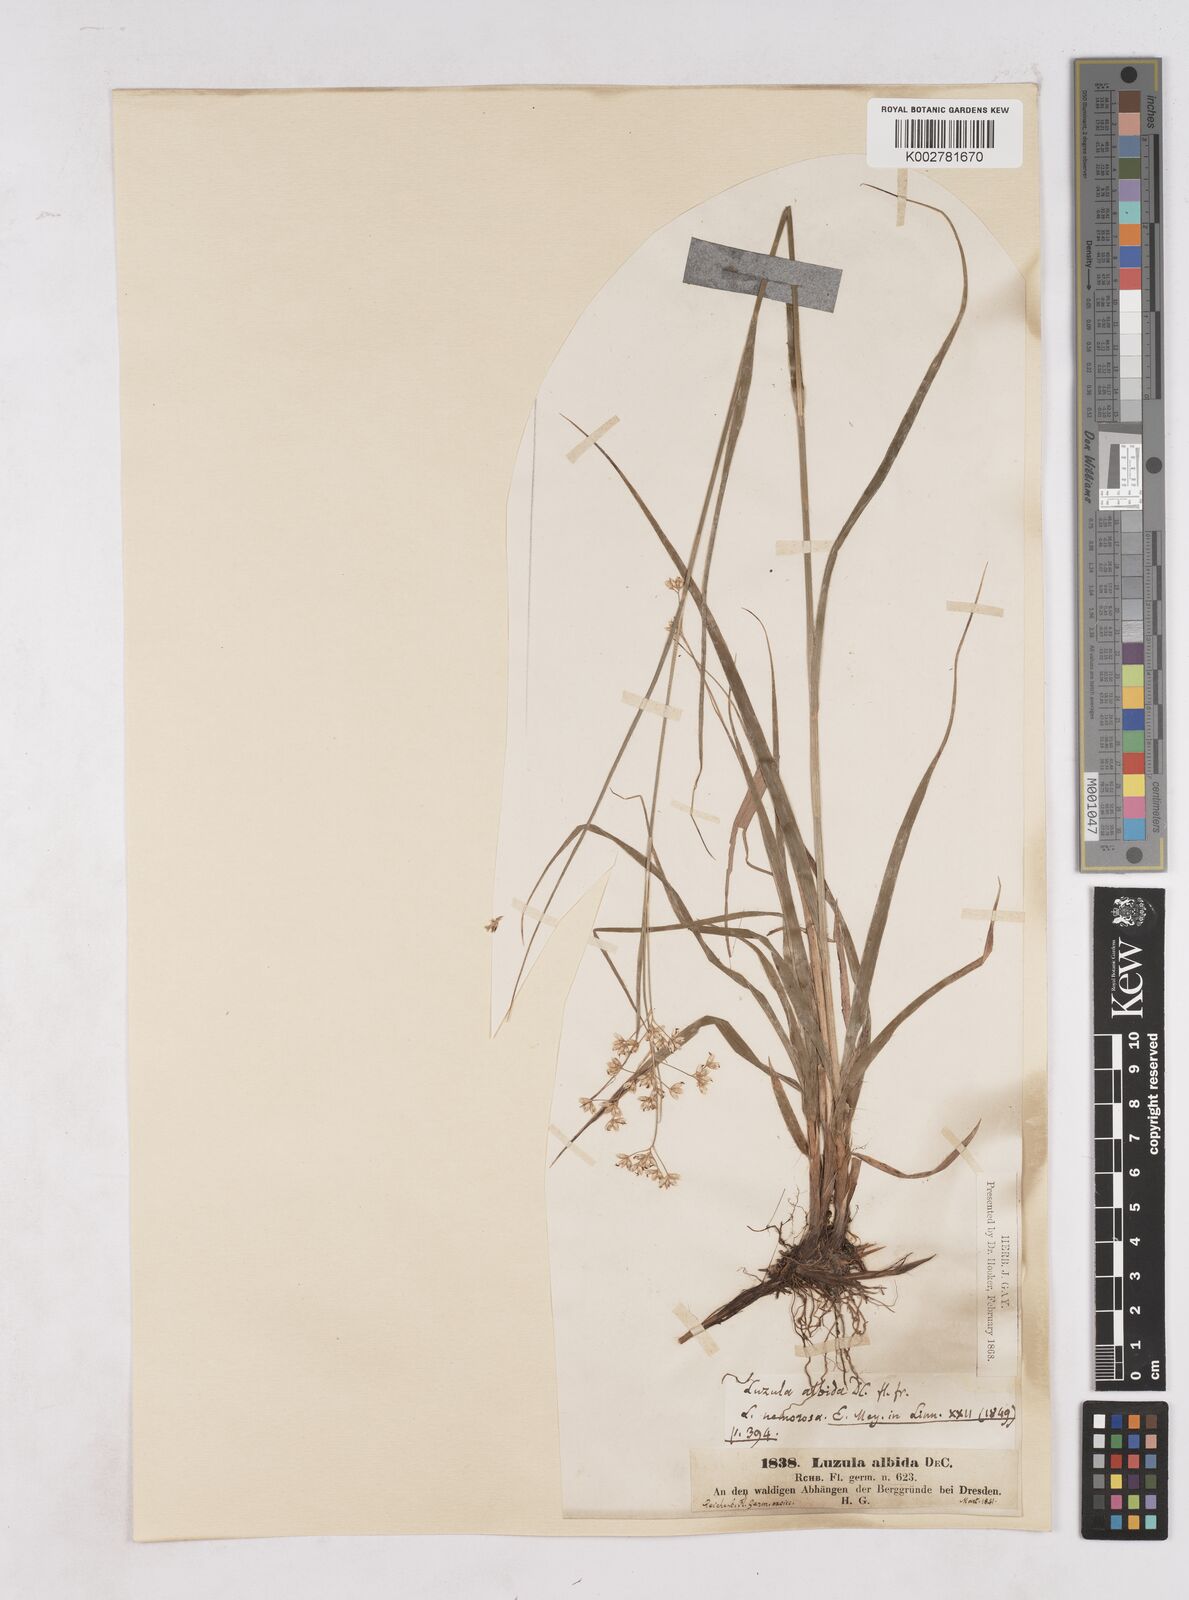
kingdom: Plantae
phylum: Tracheophyta
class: Liliopsida
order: Poales
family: Juncaceae
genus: Luzula
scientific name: Luzula luzuloides
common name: White wood-rush
